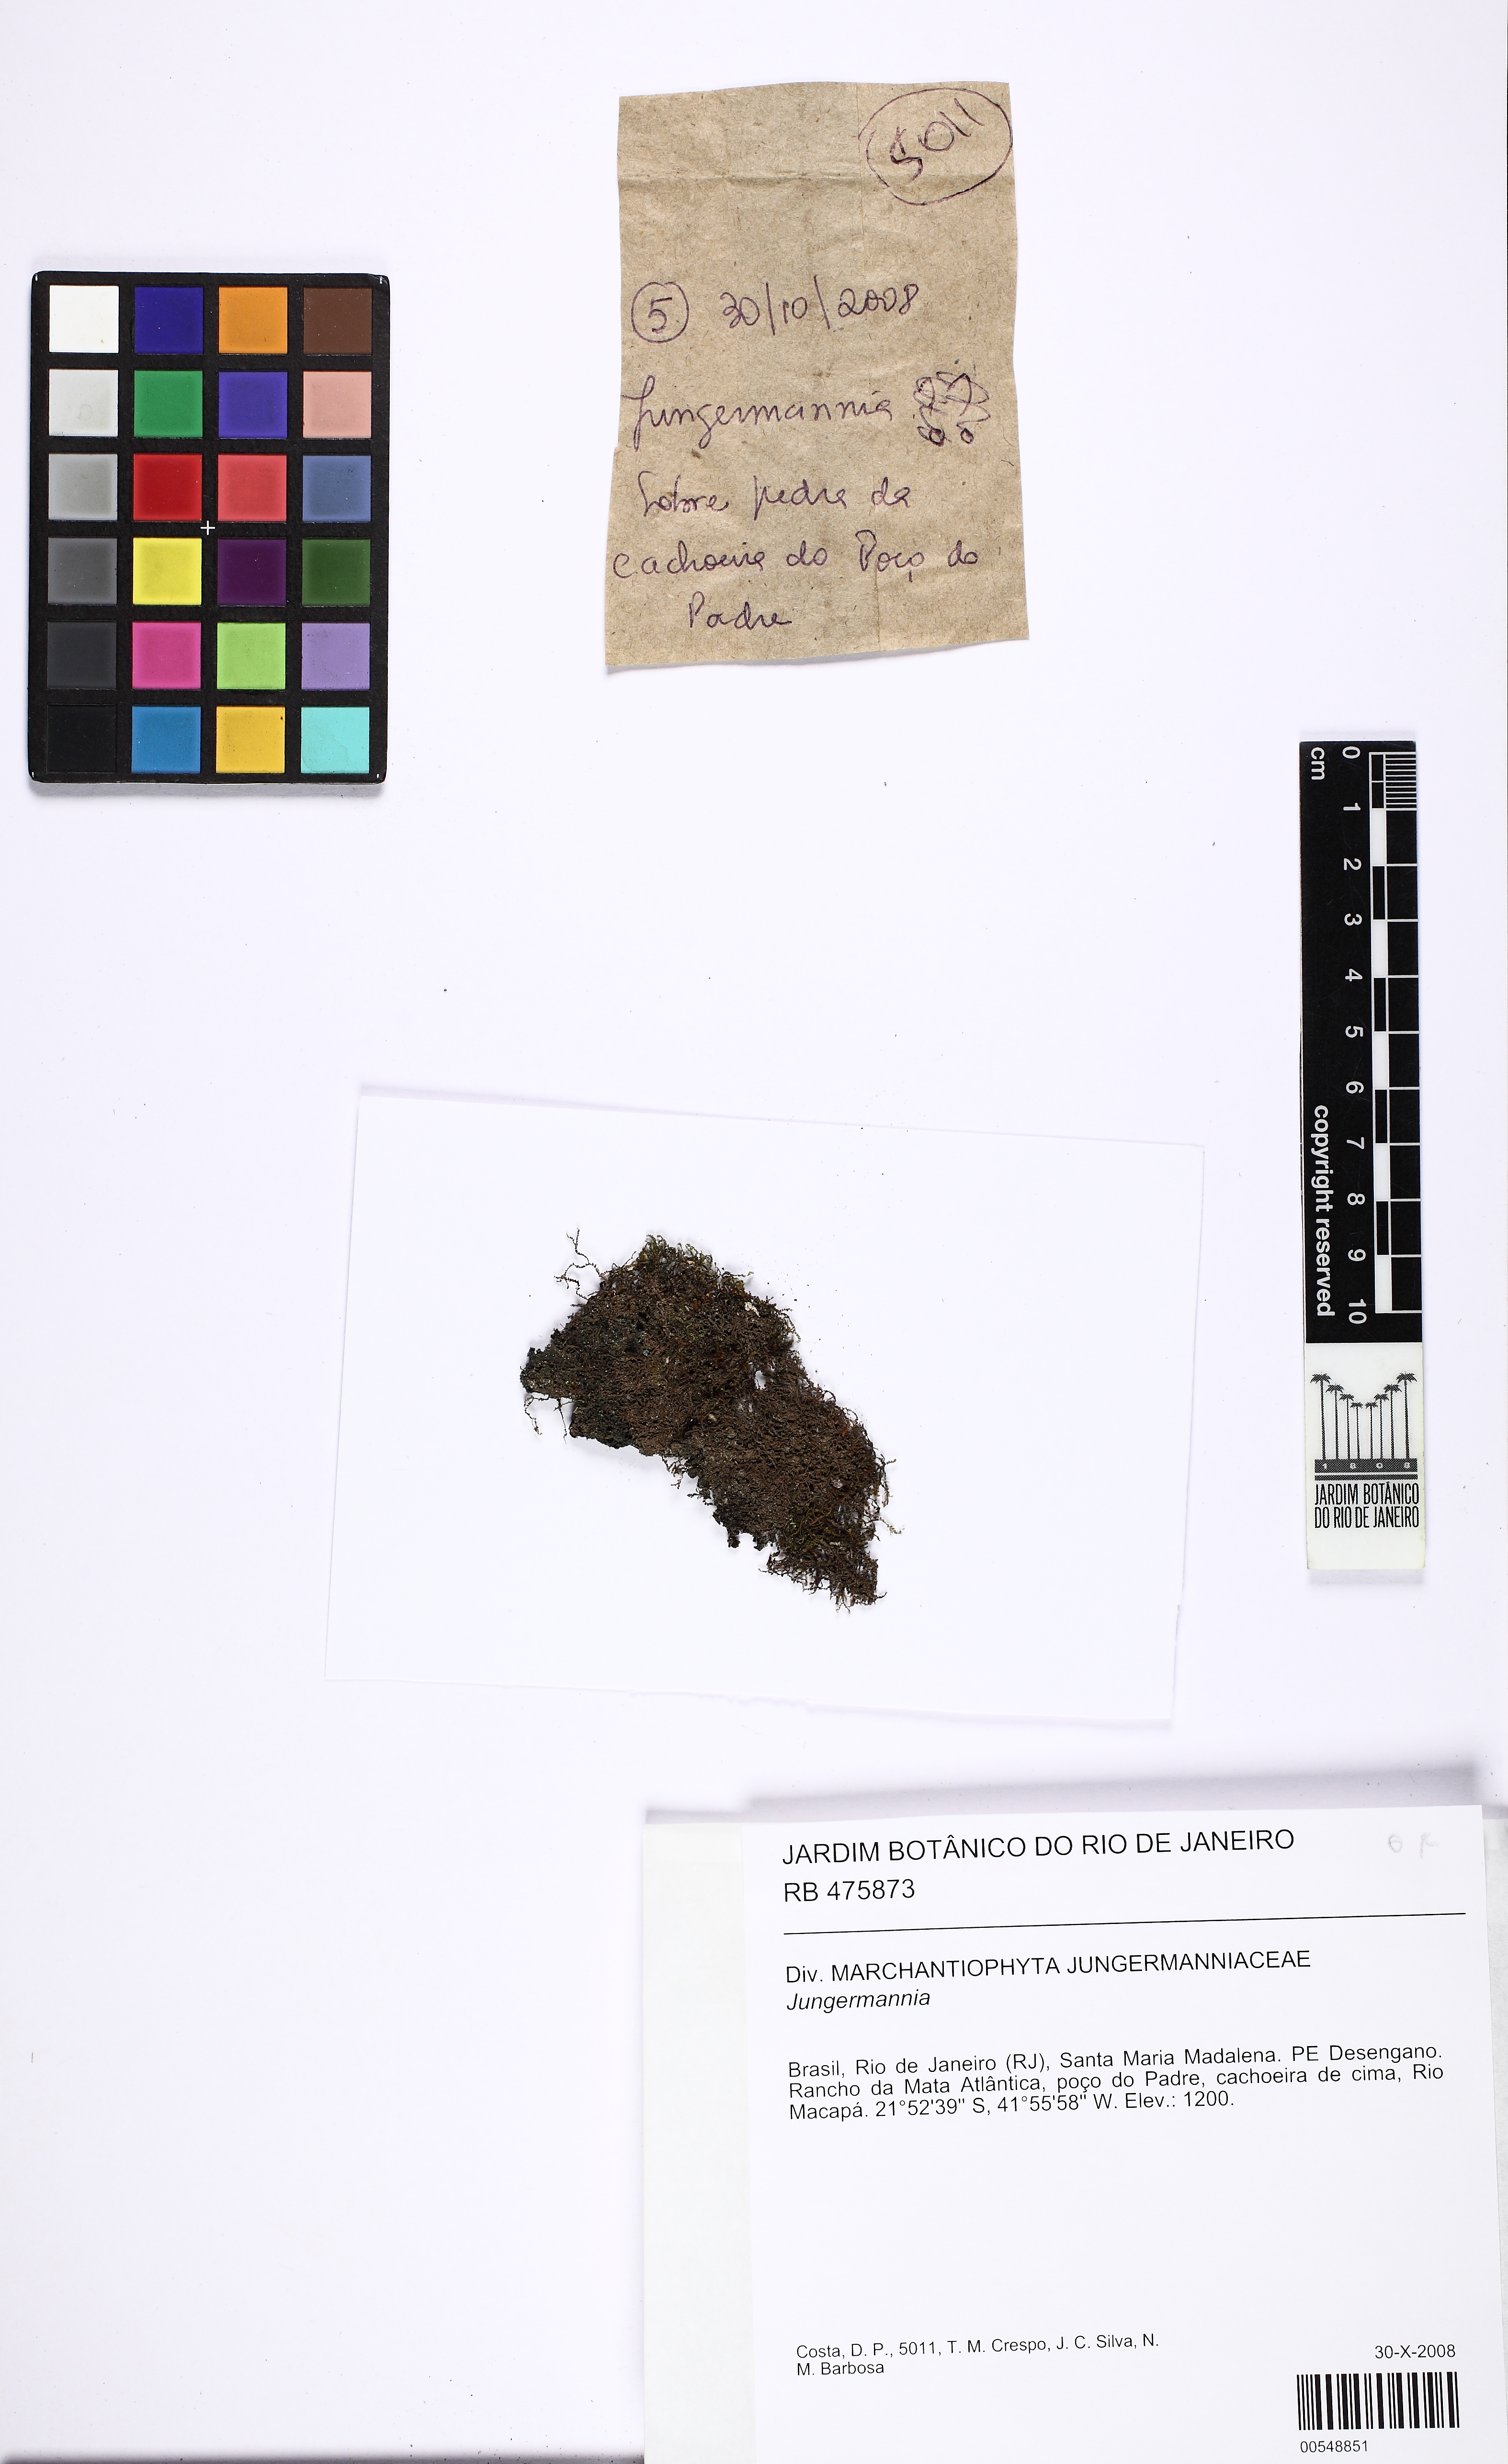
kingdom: Plantae
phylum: Marchantiophyta
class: Jungermanniopsida
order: Jungermanniales
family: Jungermanniaceae
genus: Jungermannia
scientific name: Jungermannia
